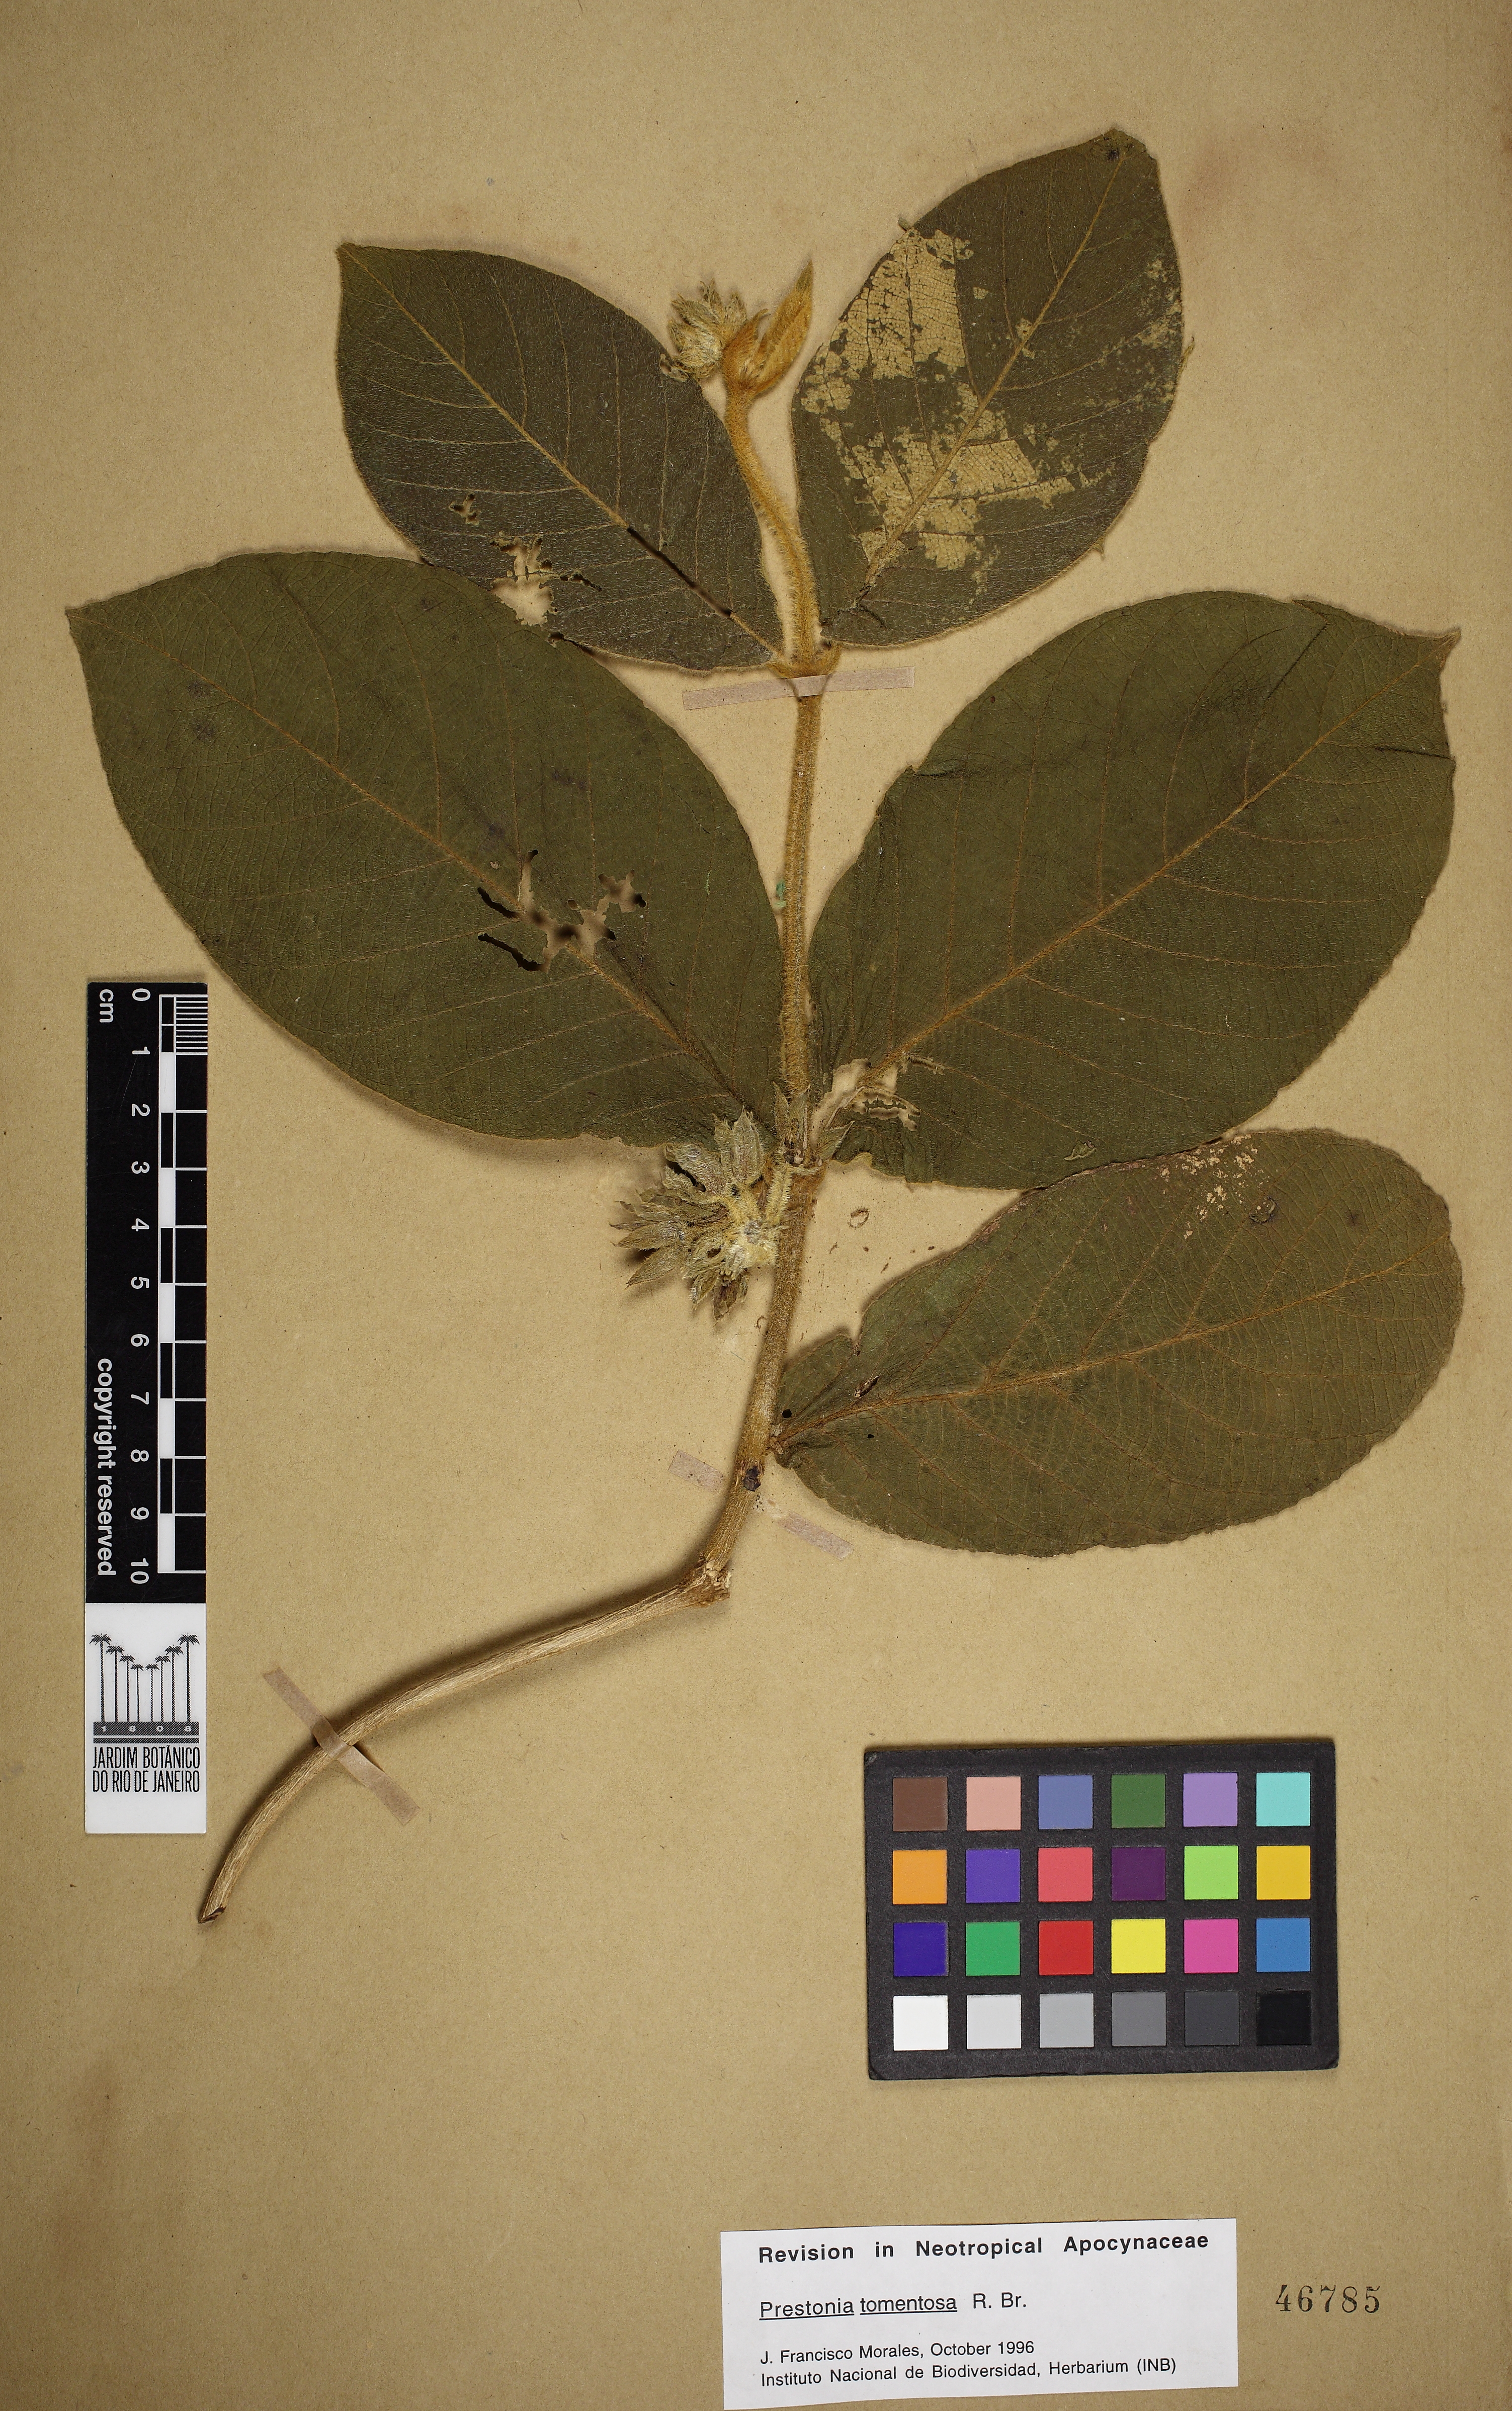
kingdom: Plantae
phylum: Tracheophyta
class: Magnoliopsida
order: Gentianales
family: Apocynaceae
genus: Prestonia
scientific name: Prestonia tomentosa
